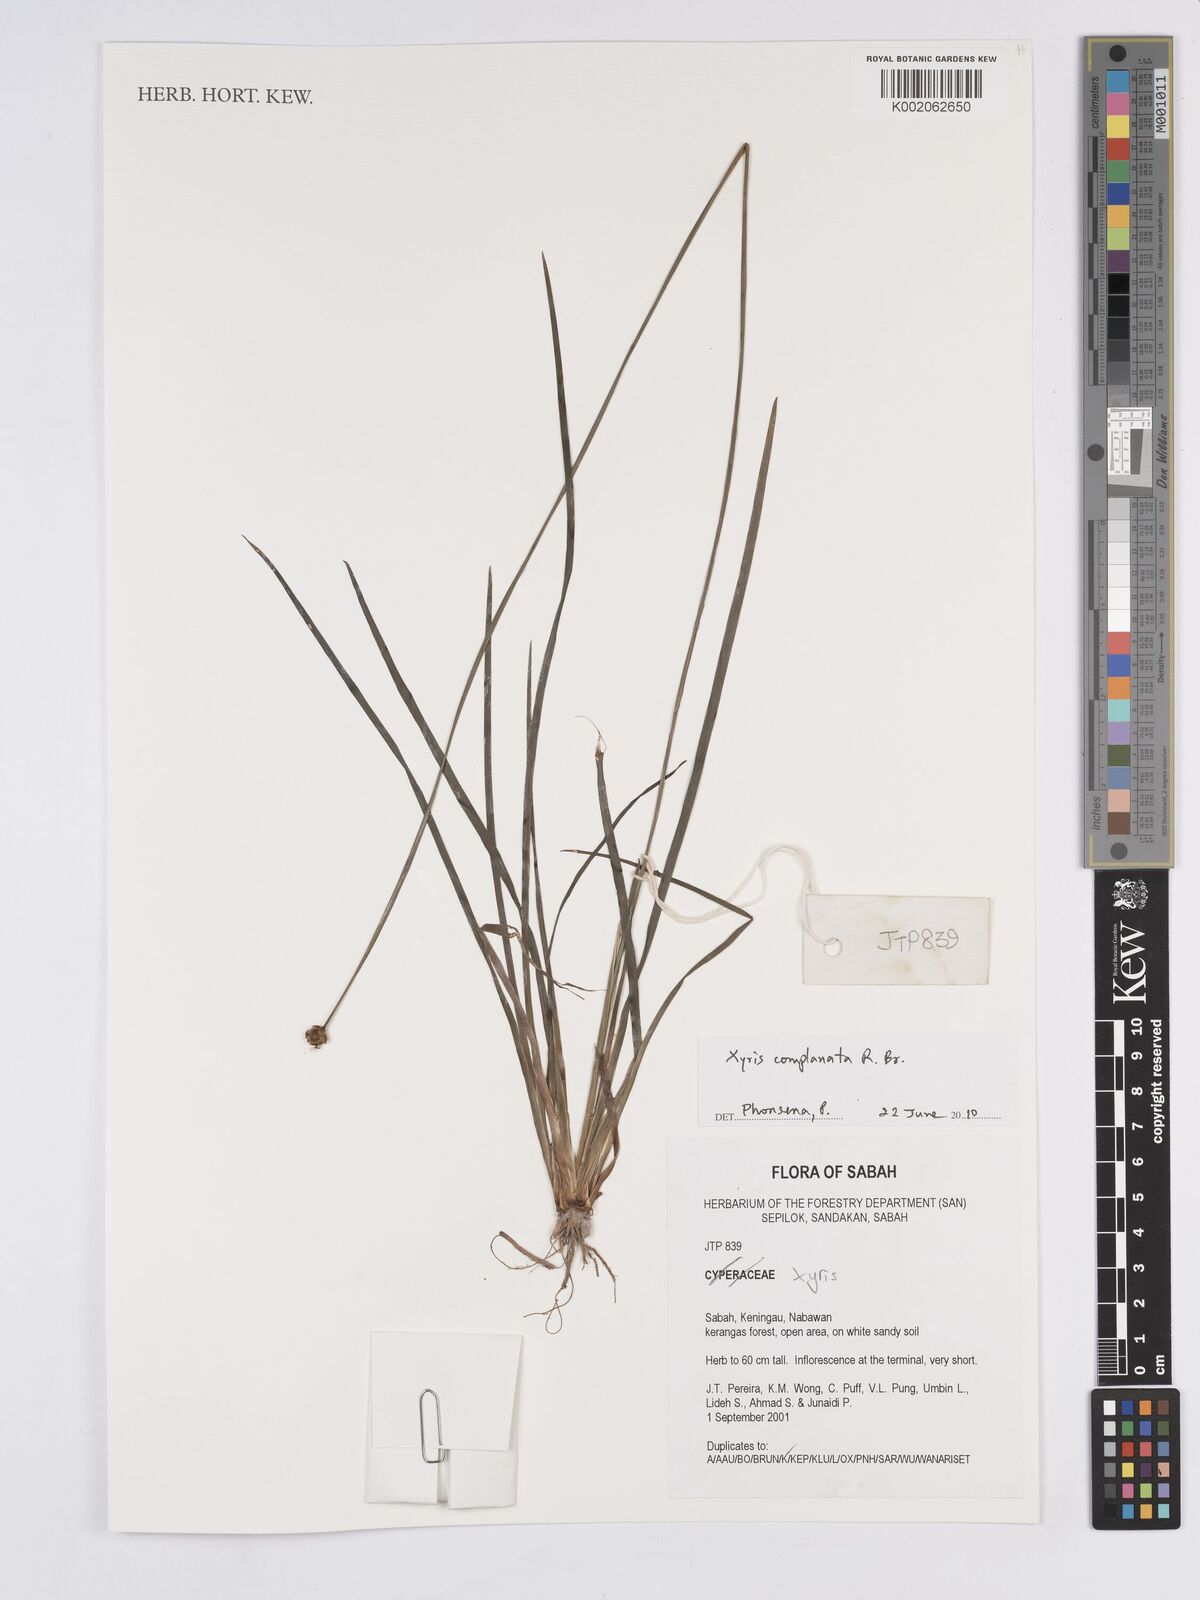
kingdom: Plantae
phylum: Tracheophyta
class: Liliopsida
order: Poales
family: Xyridaceae
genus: Xyris
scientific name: Xyris complanata
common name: Hawai'i yelloweyed grass
